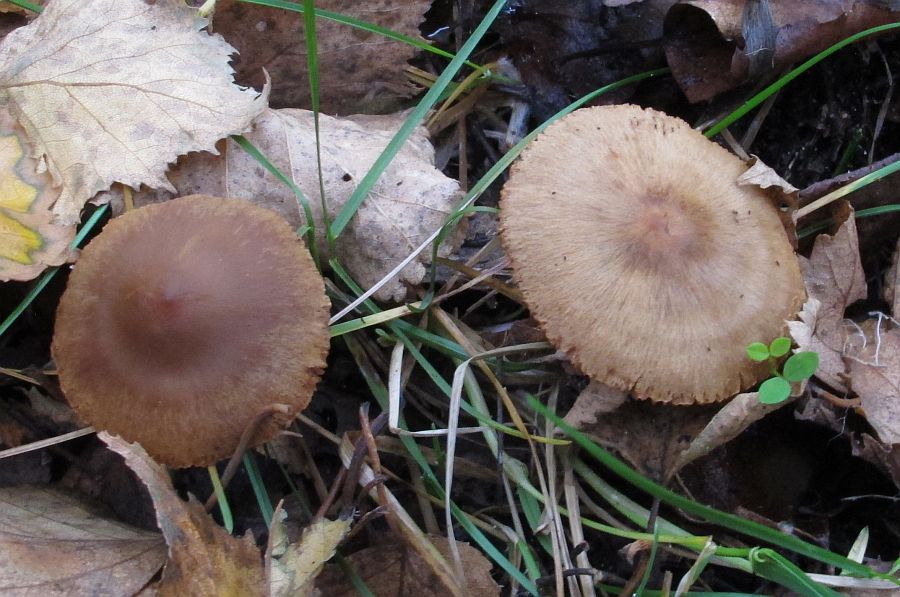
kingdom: Fungi
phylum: Basidiomycota
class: Agaricomycetes
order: Agaricales
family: Cortinariaceae
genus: Cortinarius
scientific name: Cortinarius valgus
